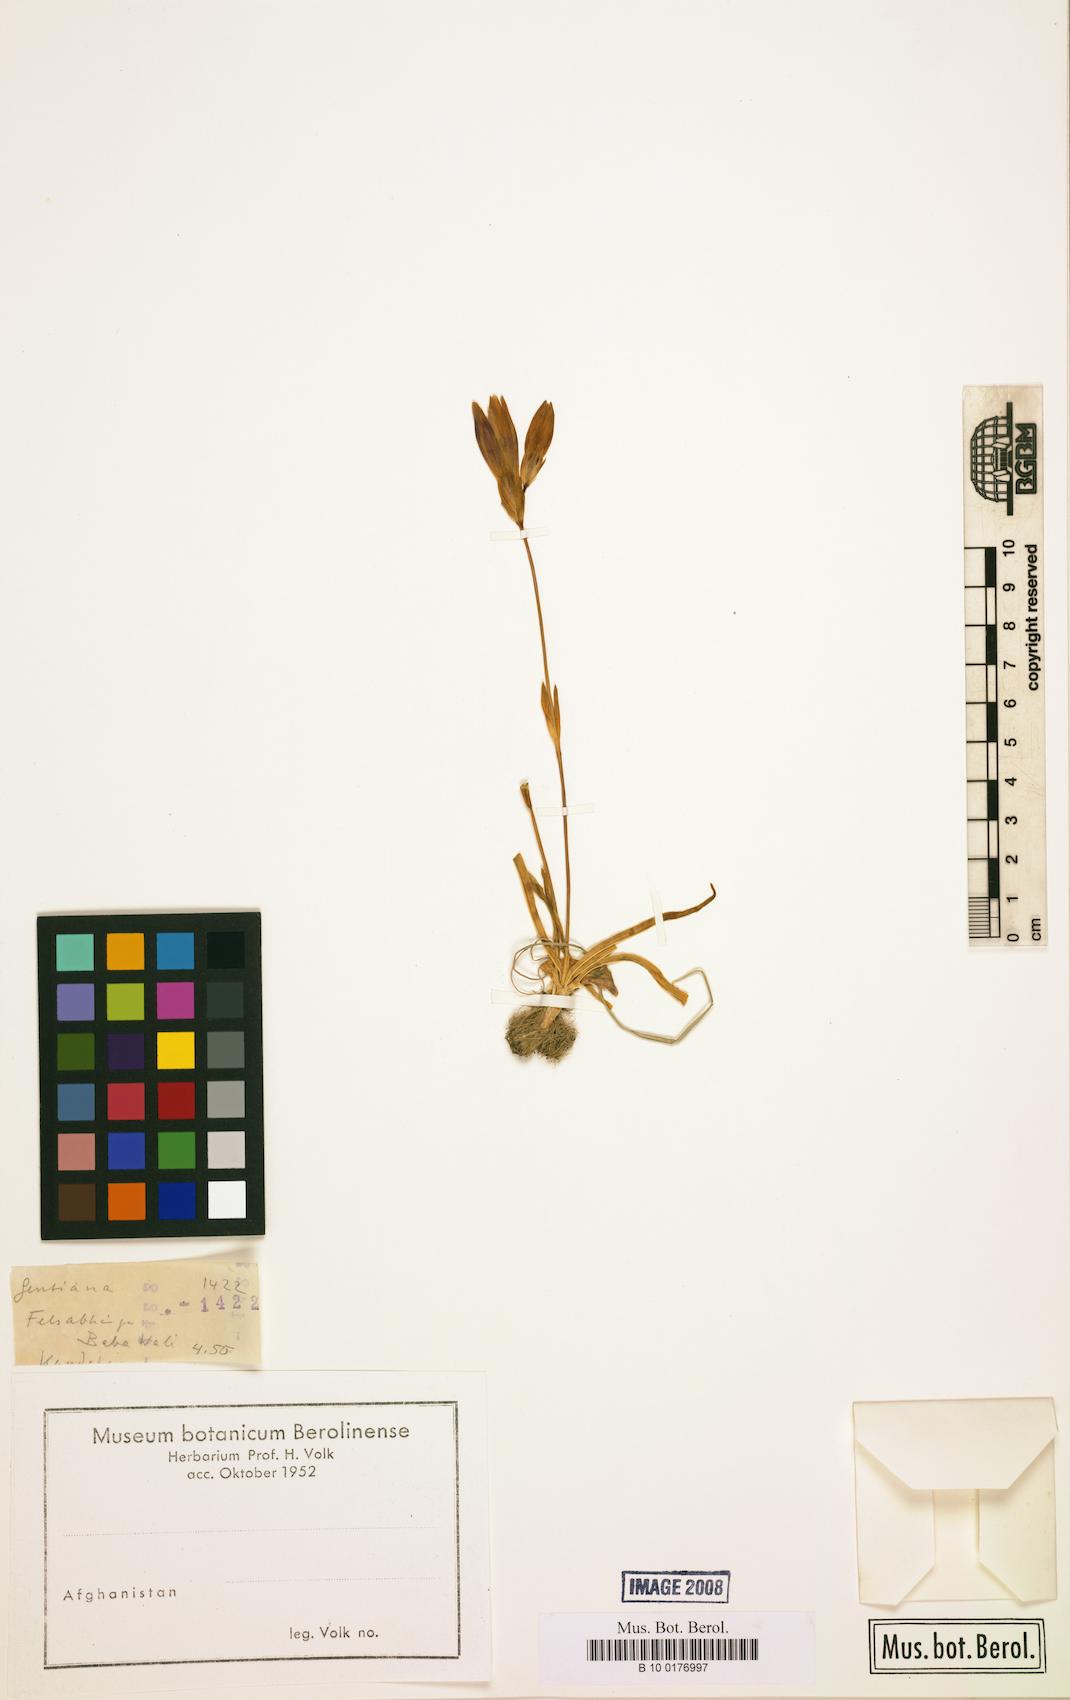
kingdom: Plantae
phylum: Tracheophyta
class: Magnoliopsida
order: Gentianales
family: Gentianaceae
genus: Gentiana
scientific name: Gentiana
